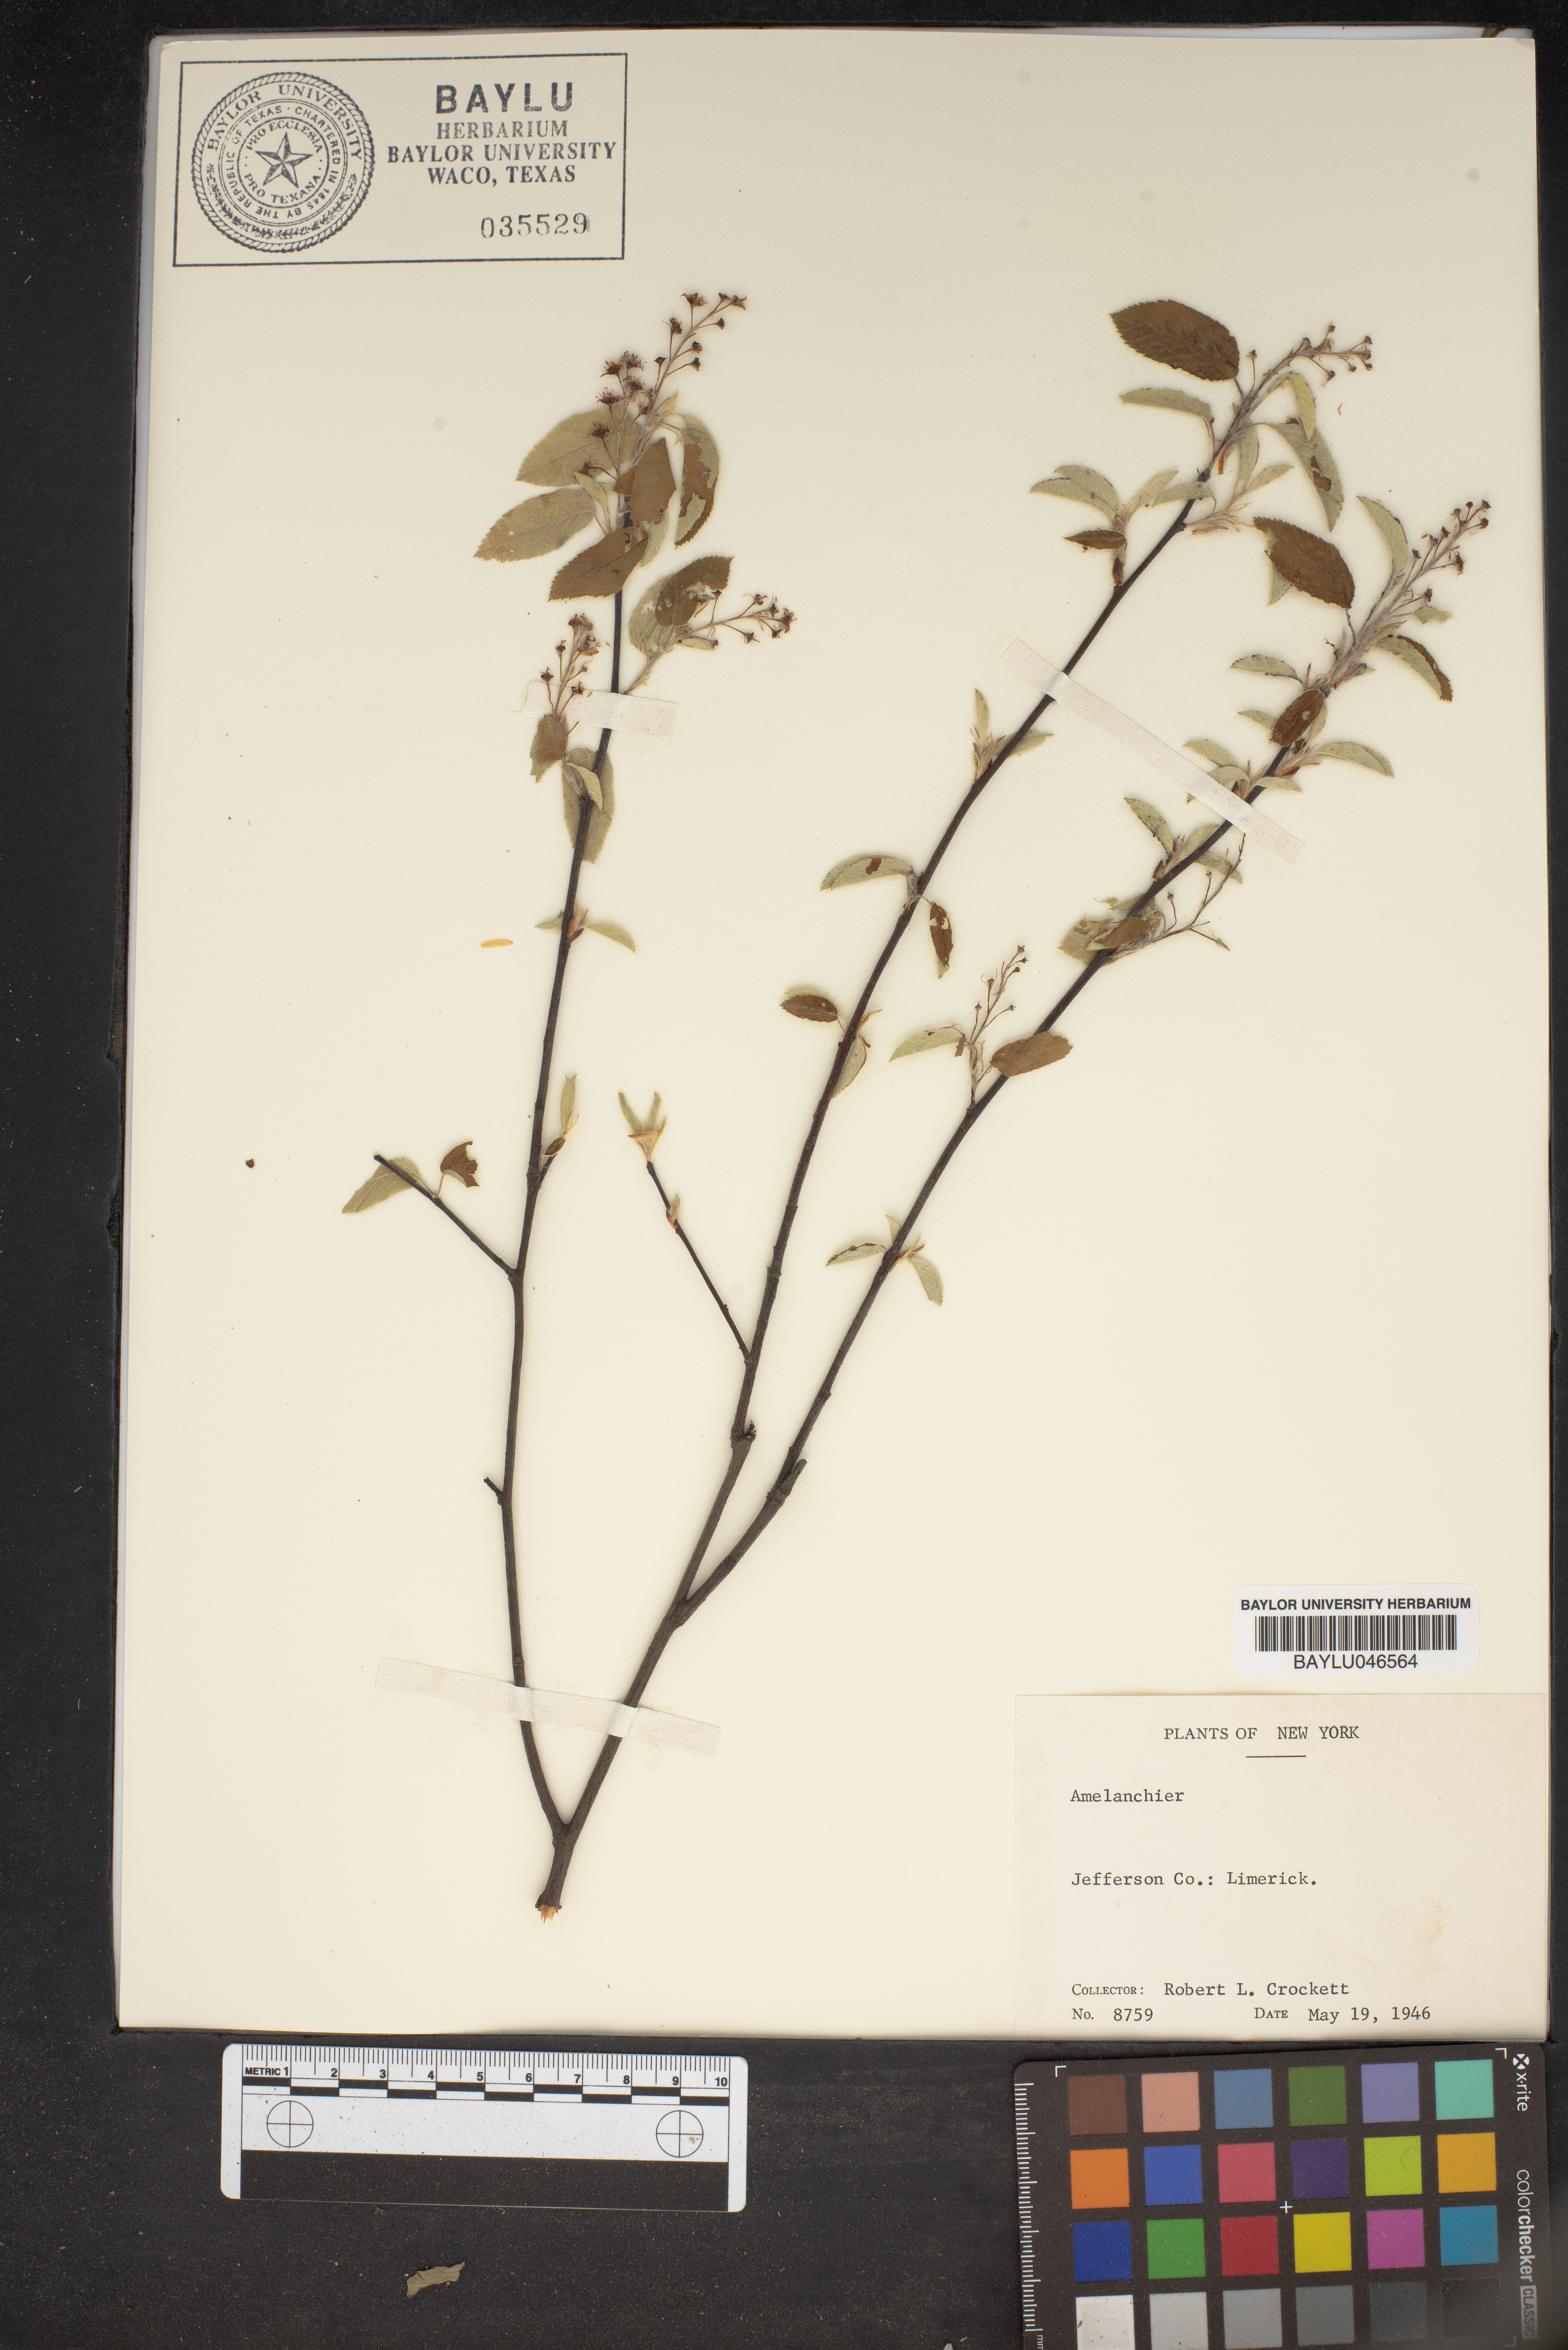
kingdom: Plantae
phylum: Tracheophyta
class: Magnoliopsida
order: Rosales
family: Rosaceae
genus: Amelanchier
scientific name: Amelanchier
